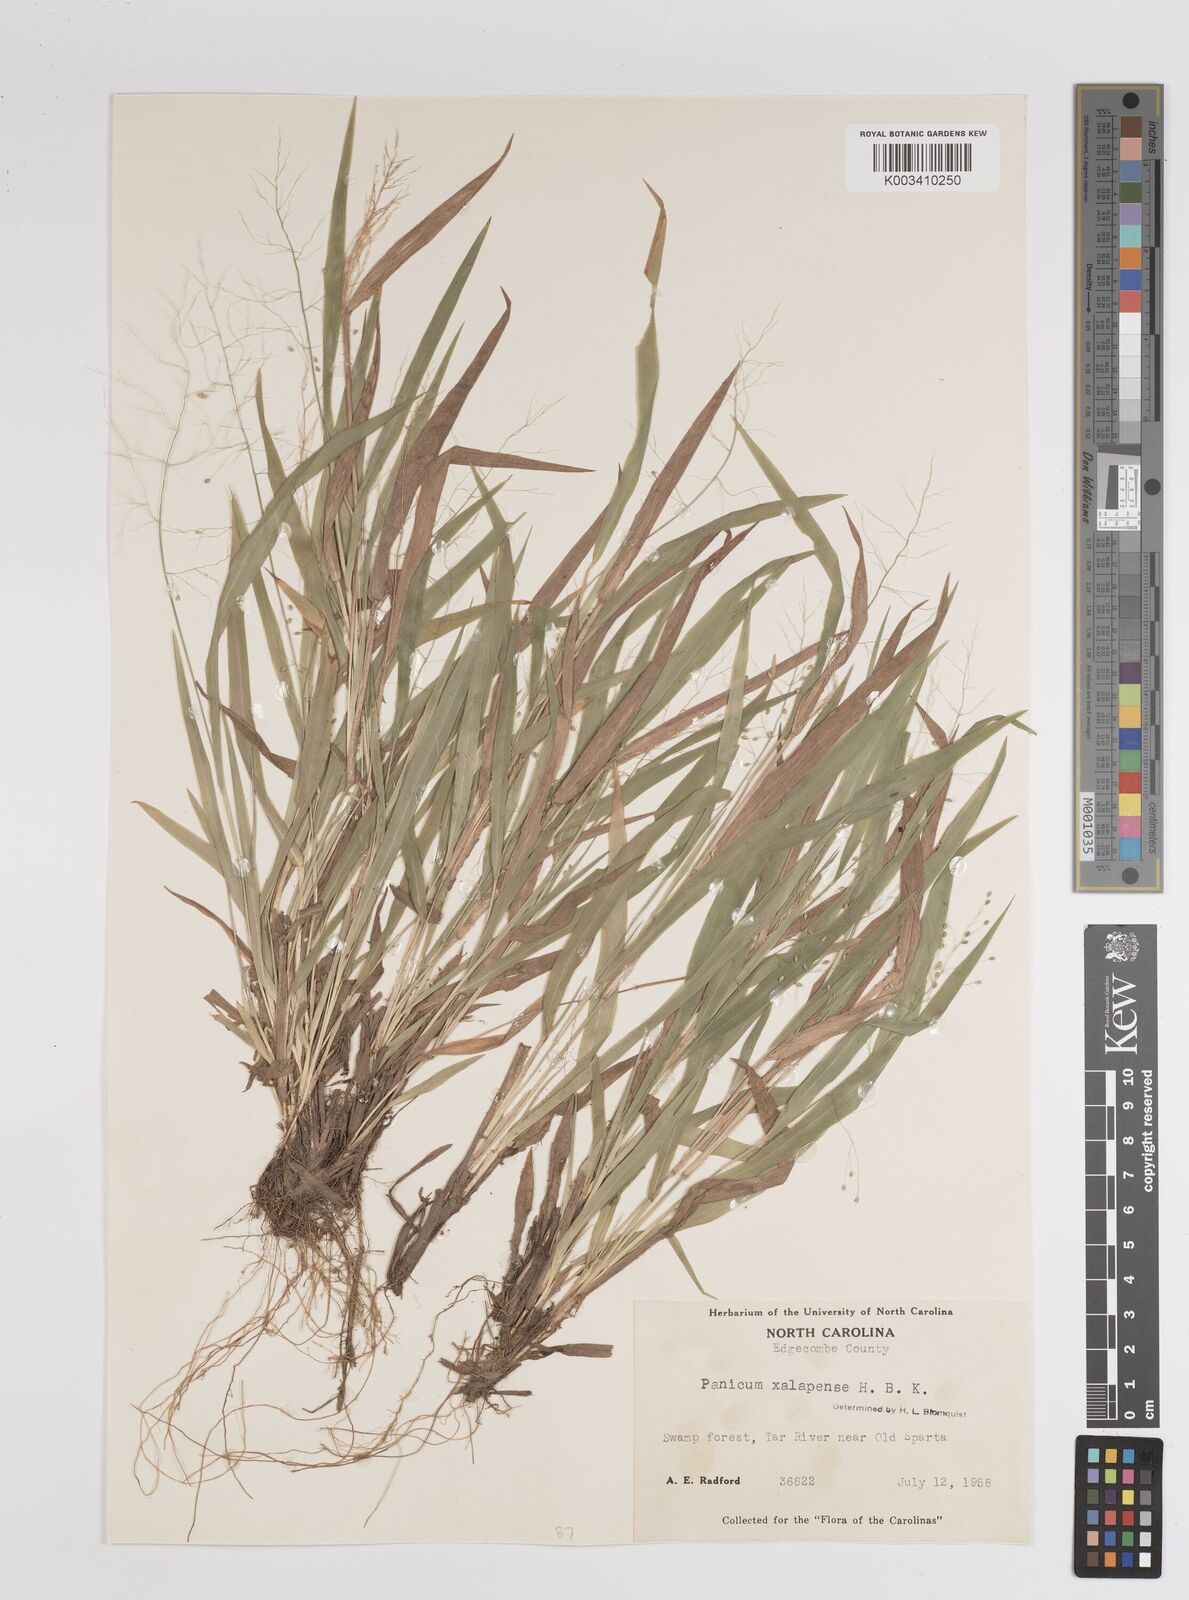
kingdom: Plantae
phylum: Tracheophyta
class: Liliopsida
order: Poales
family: Poaceae
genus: Dichanthelium
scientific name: Dichanthelium laxiflorum
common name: Soft-tuft panic grass
